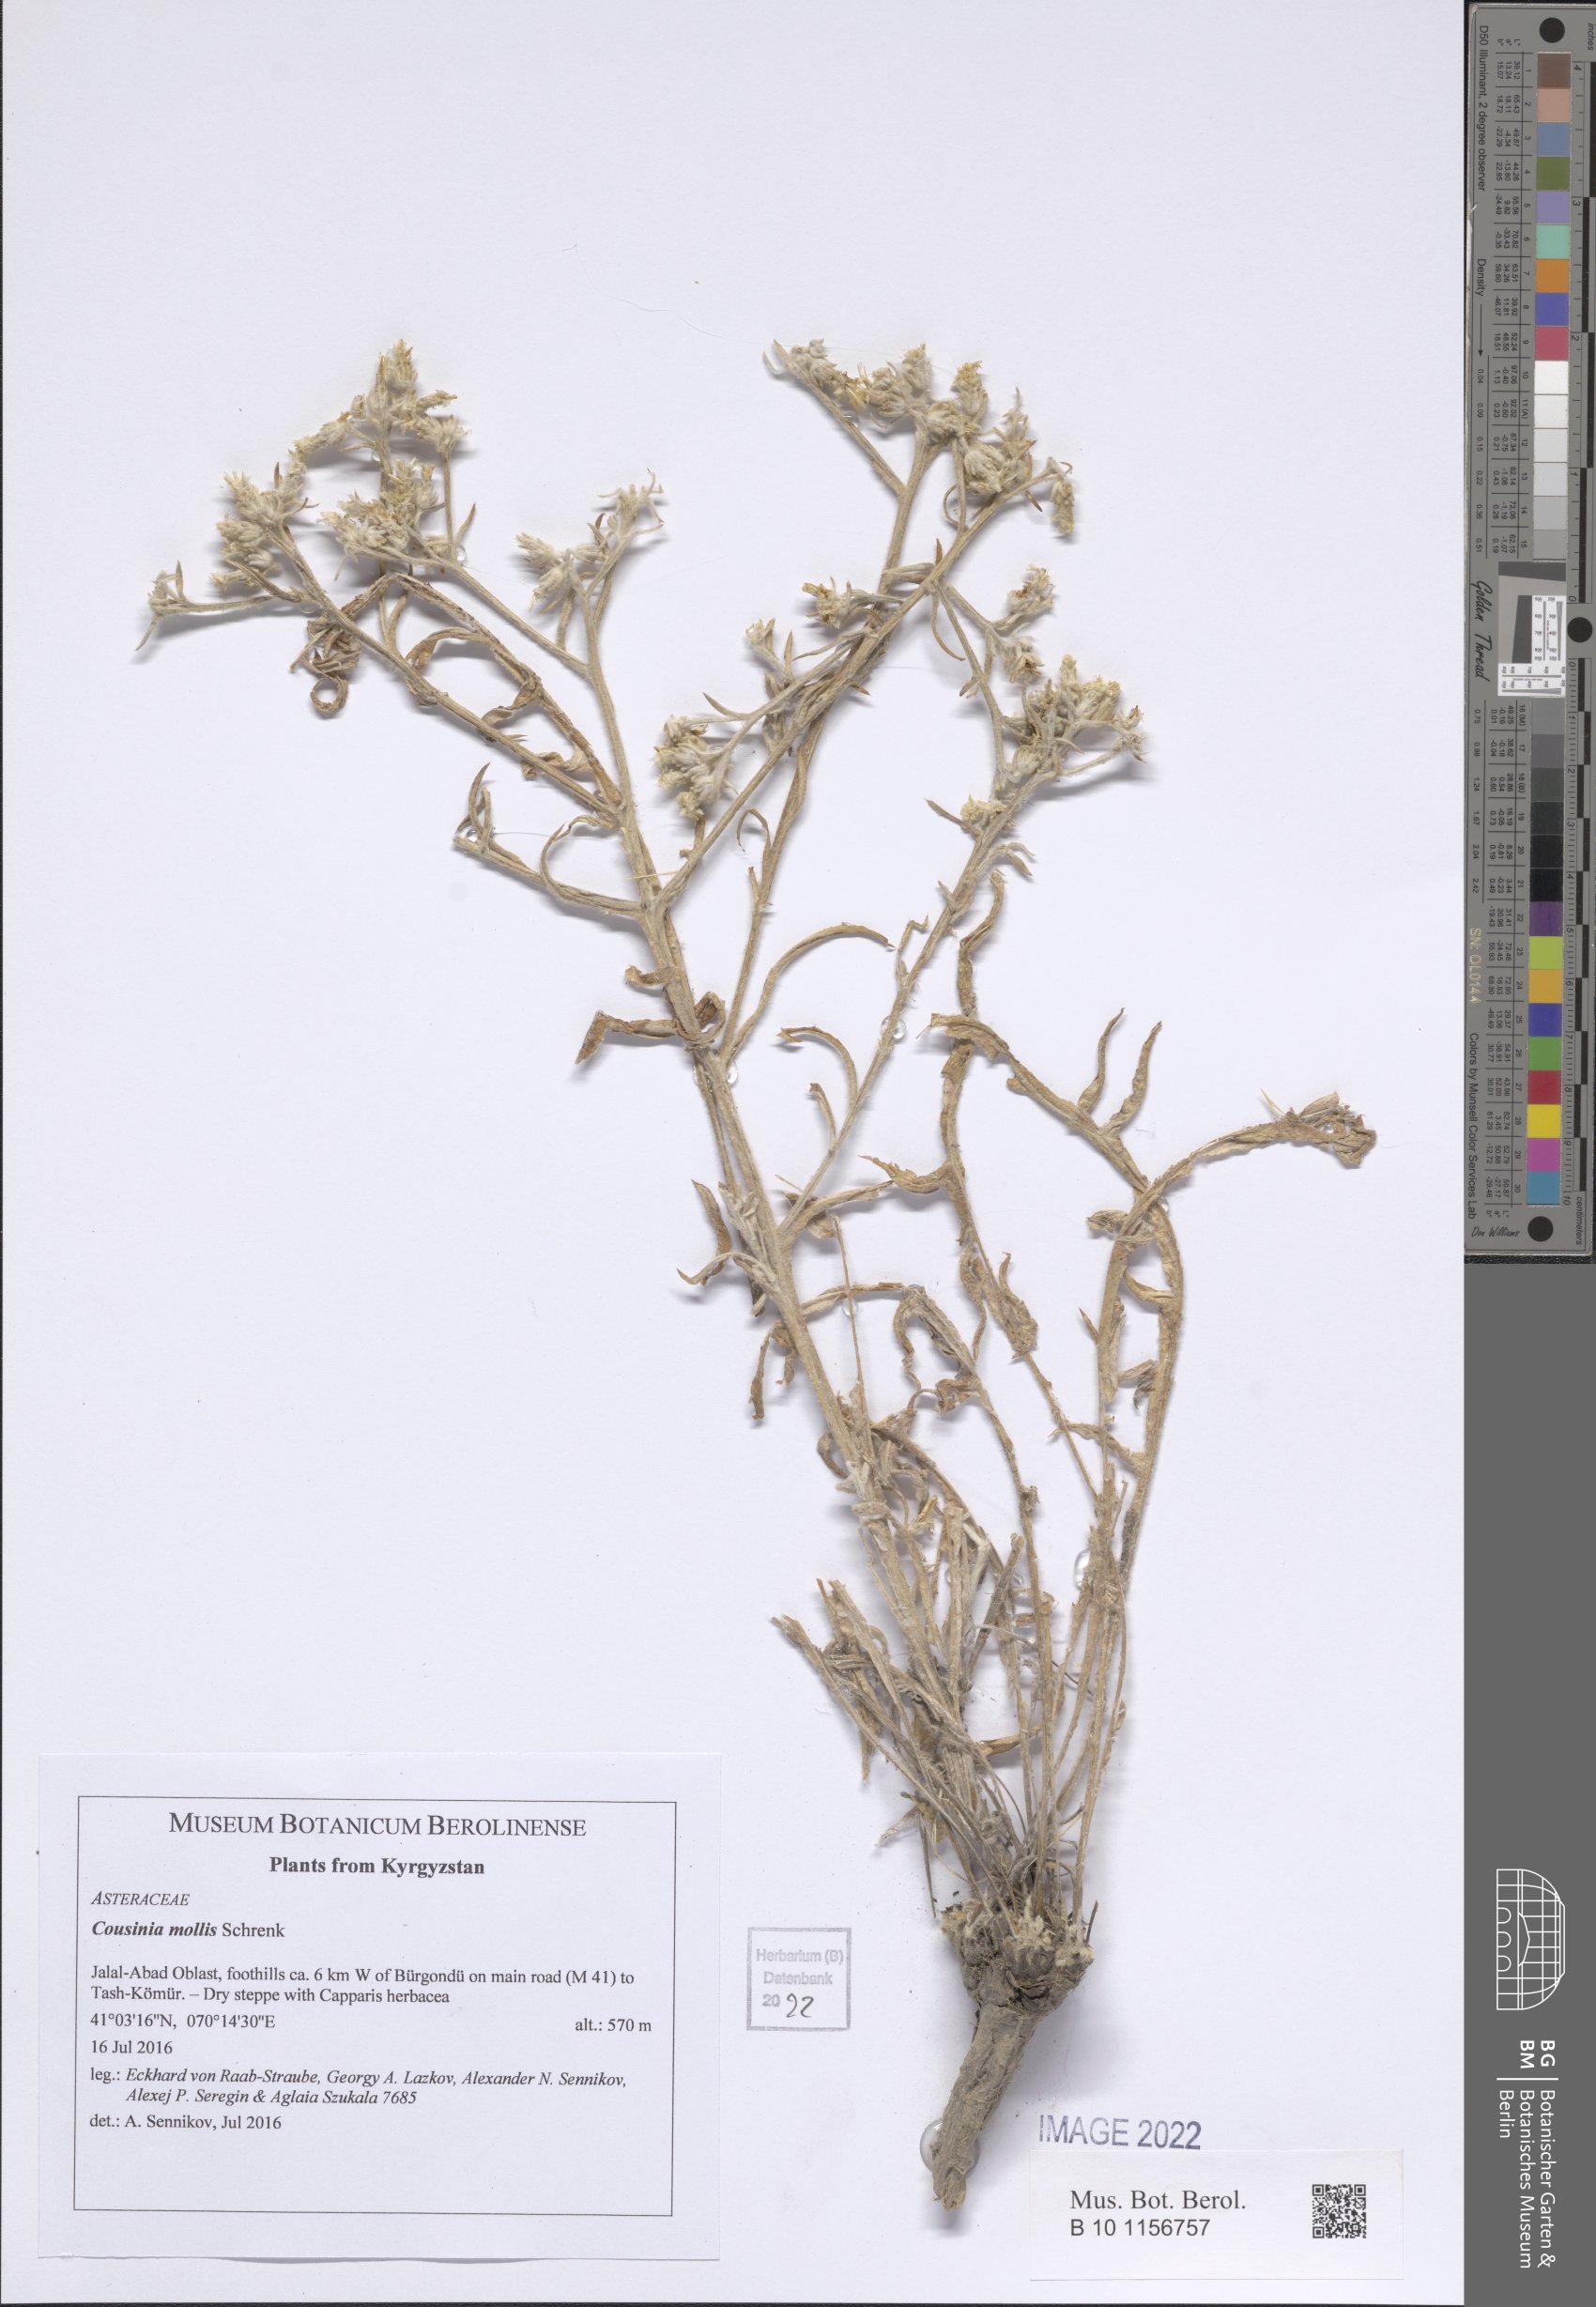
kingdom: Plantae
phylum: Tracheophyta
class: Magnoliopsida
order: Asterales
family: Asteraceae
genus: Cousinia
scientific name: Cousinia mollis
